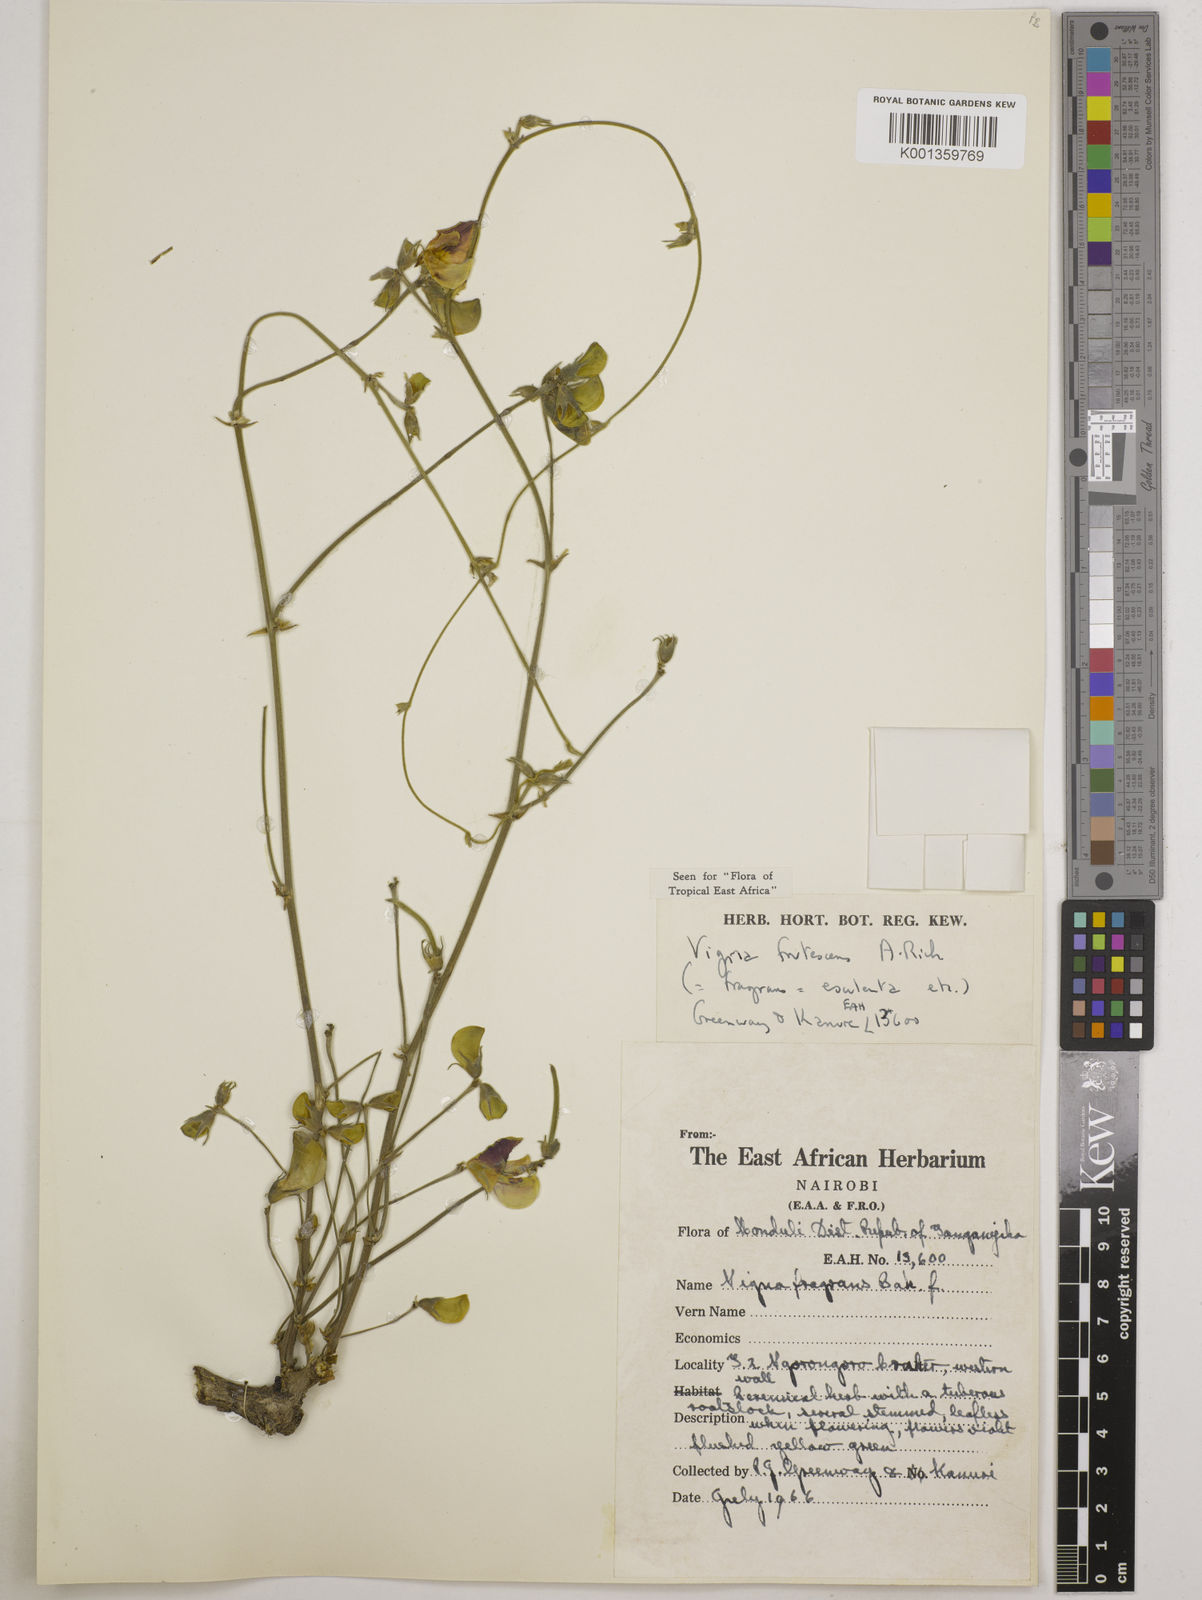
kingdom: Plantae
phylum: Tracheophyta
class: Magnoliopsida
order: Fabales
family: Fabaceae
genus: Vigna
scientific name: Vigna frutescens
